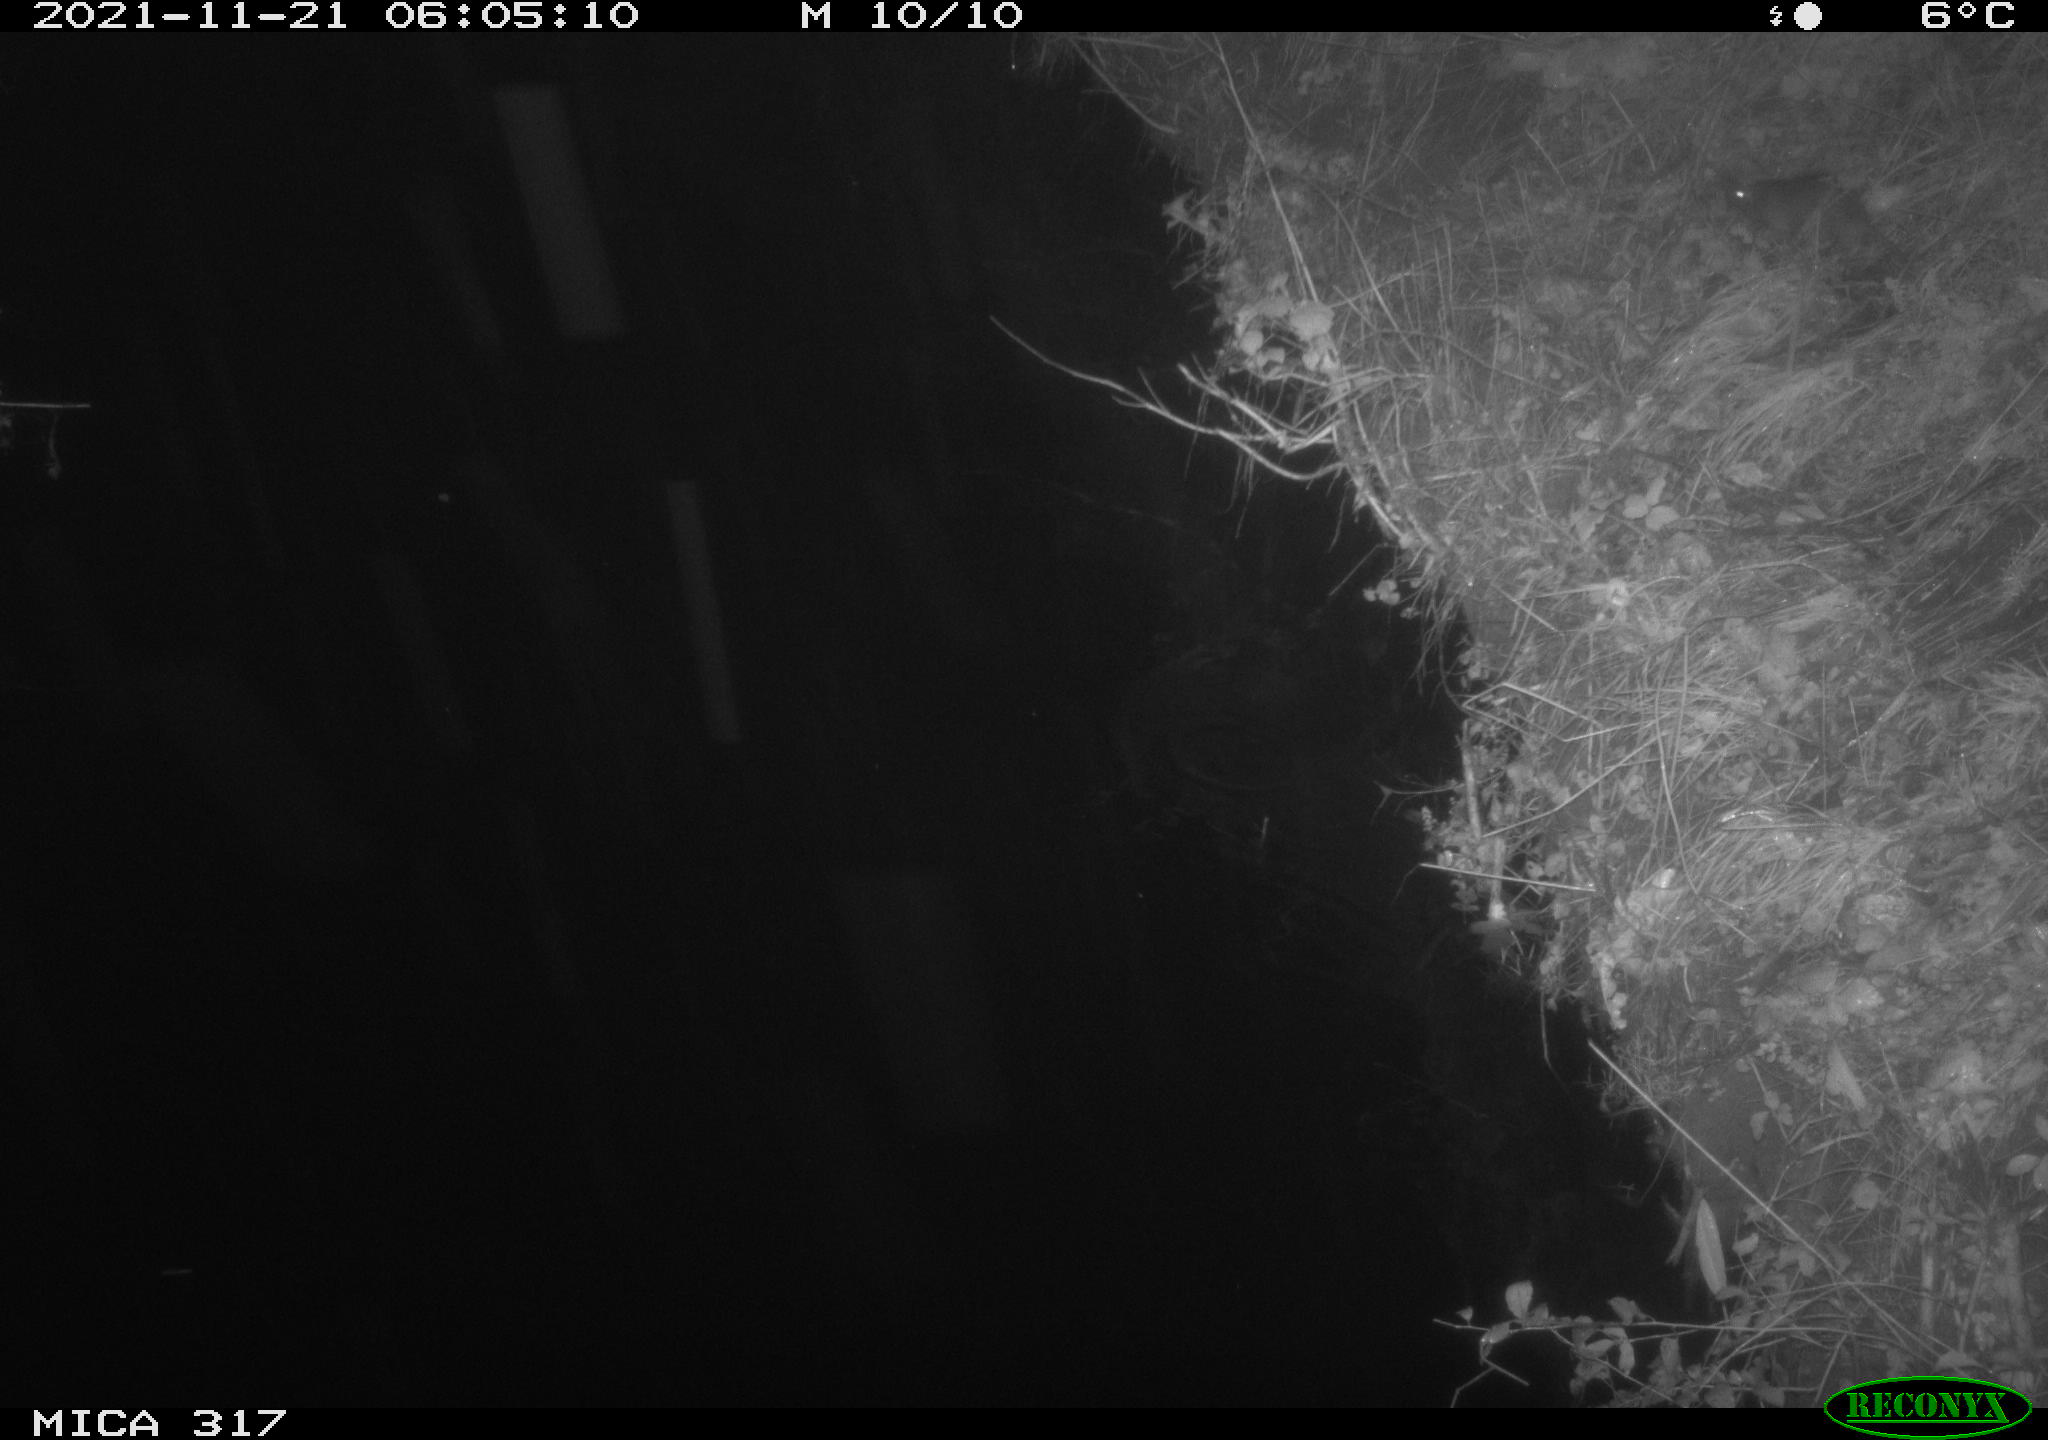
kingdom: Animalia
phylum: Chordata
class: Mammalia
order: Rodentia
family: Muridae
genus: Rattus
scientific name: Rattus norvegicus
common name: Brown rat
